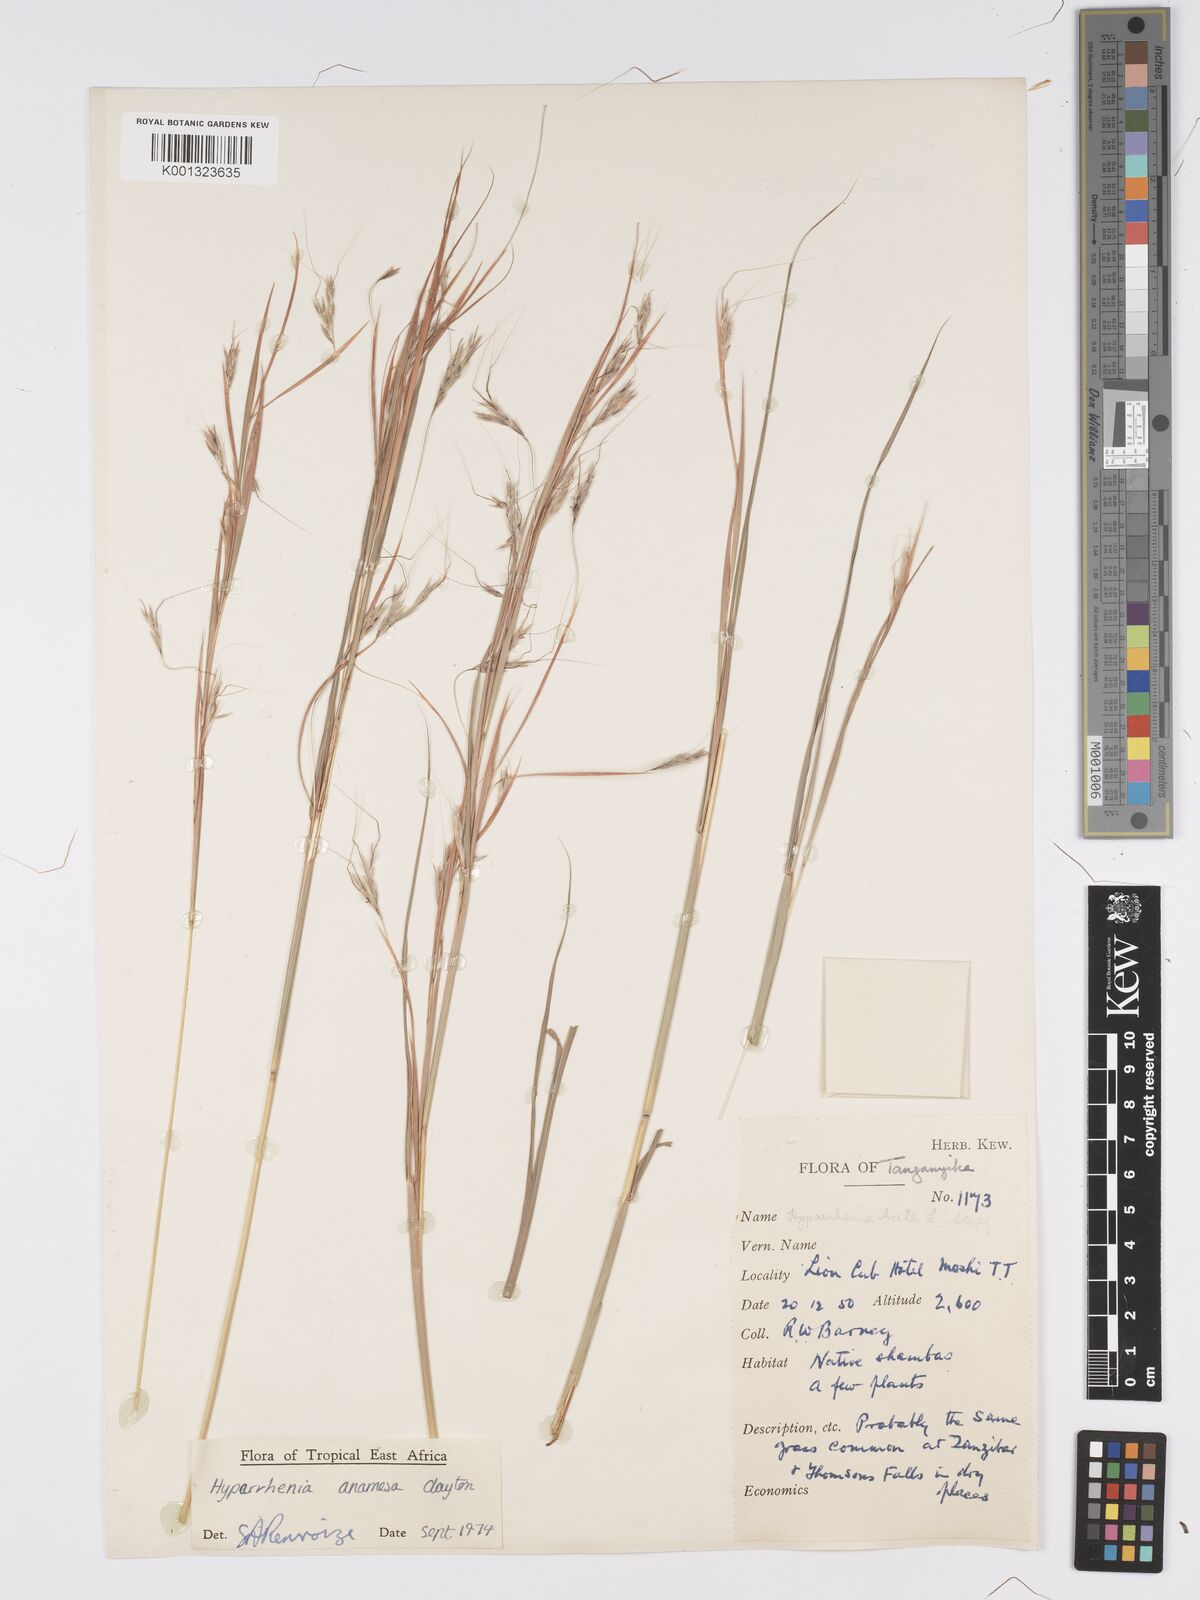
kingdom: Plantae
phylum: Tracheophyta
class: Liliopsida
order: Poales
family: Poaceae
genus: Hyparrhenia
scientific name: Hyparrhenia anamesa
